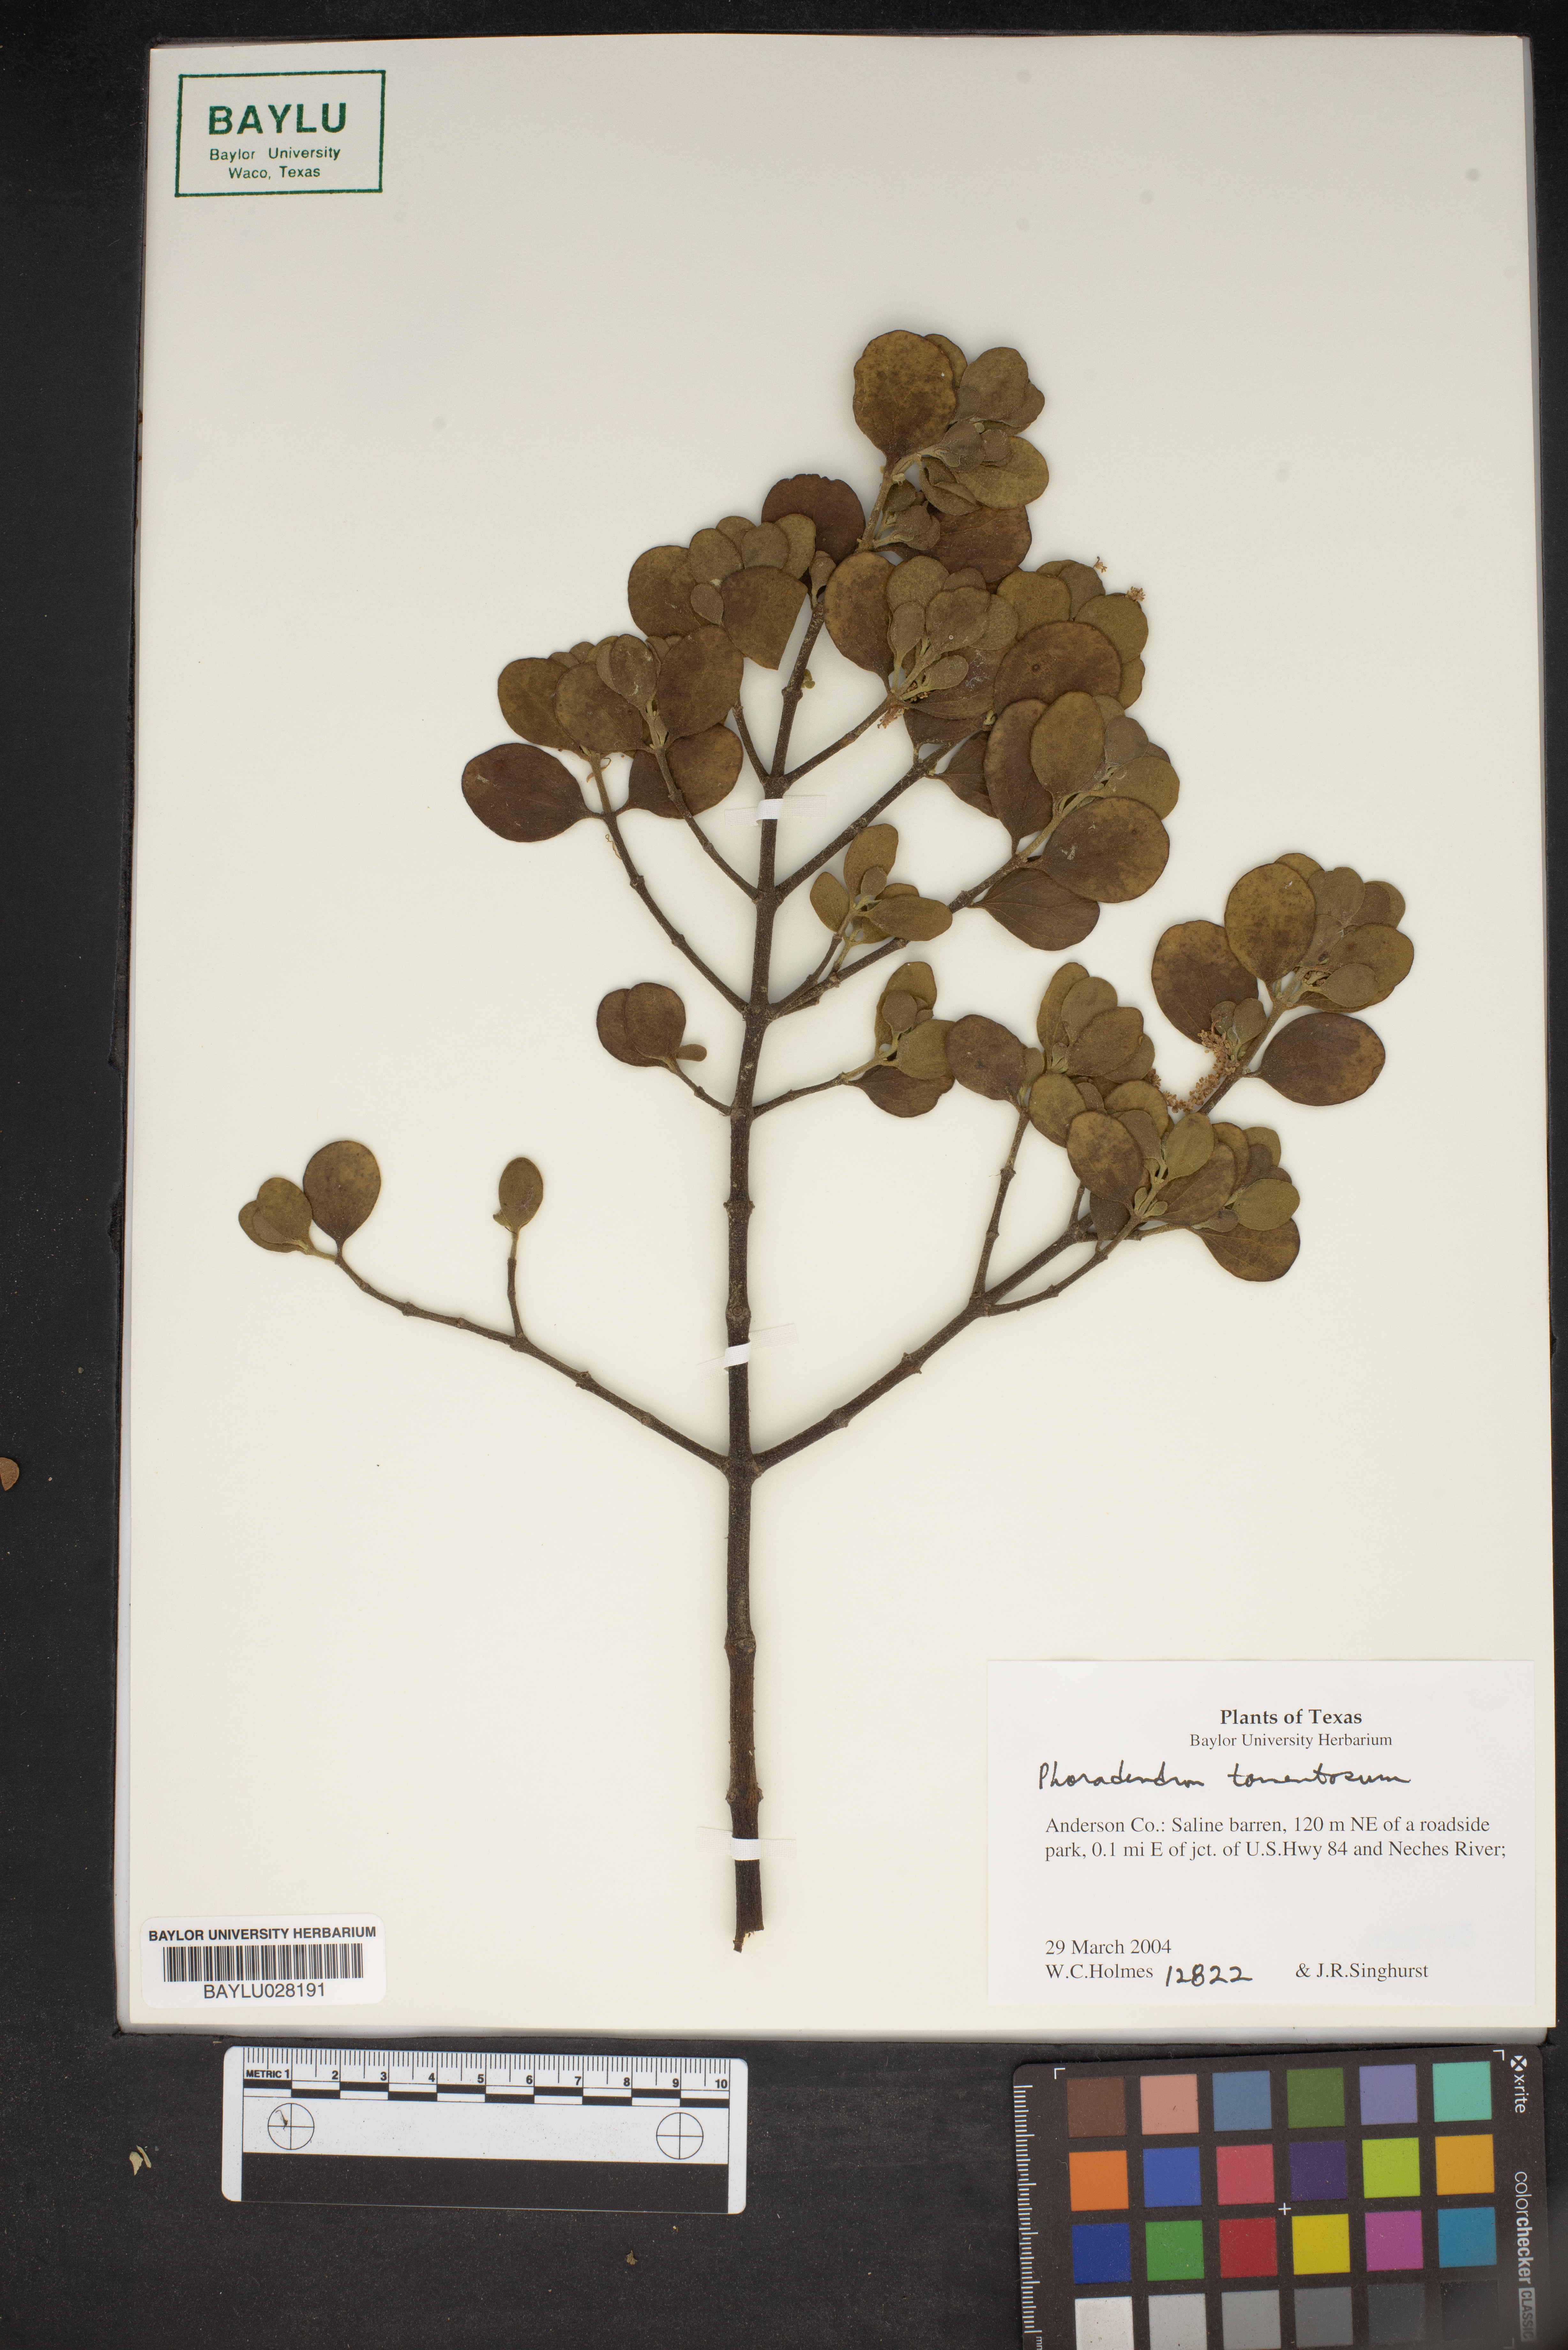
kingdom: Plantae
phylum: Tracheophyta
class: Magnoliopsida
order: Santalales
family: Viscaceae
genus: Phoradendron
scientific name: Phoradendron leucarpum
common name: Pacific mistletoe
